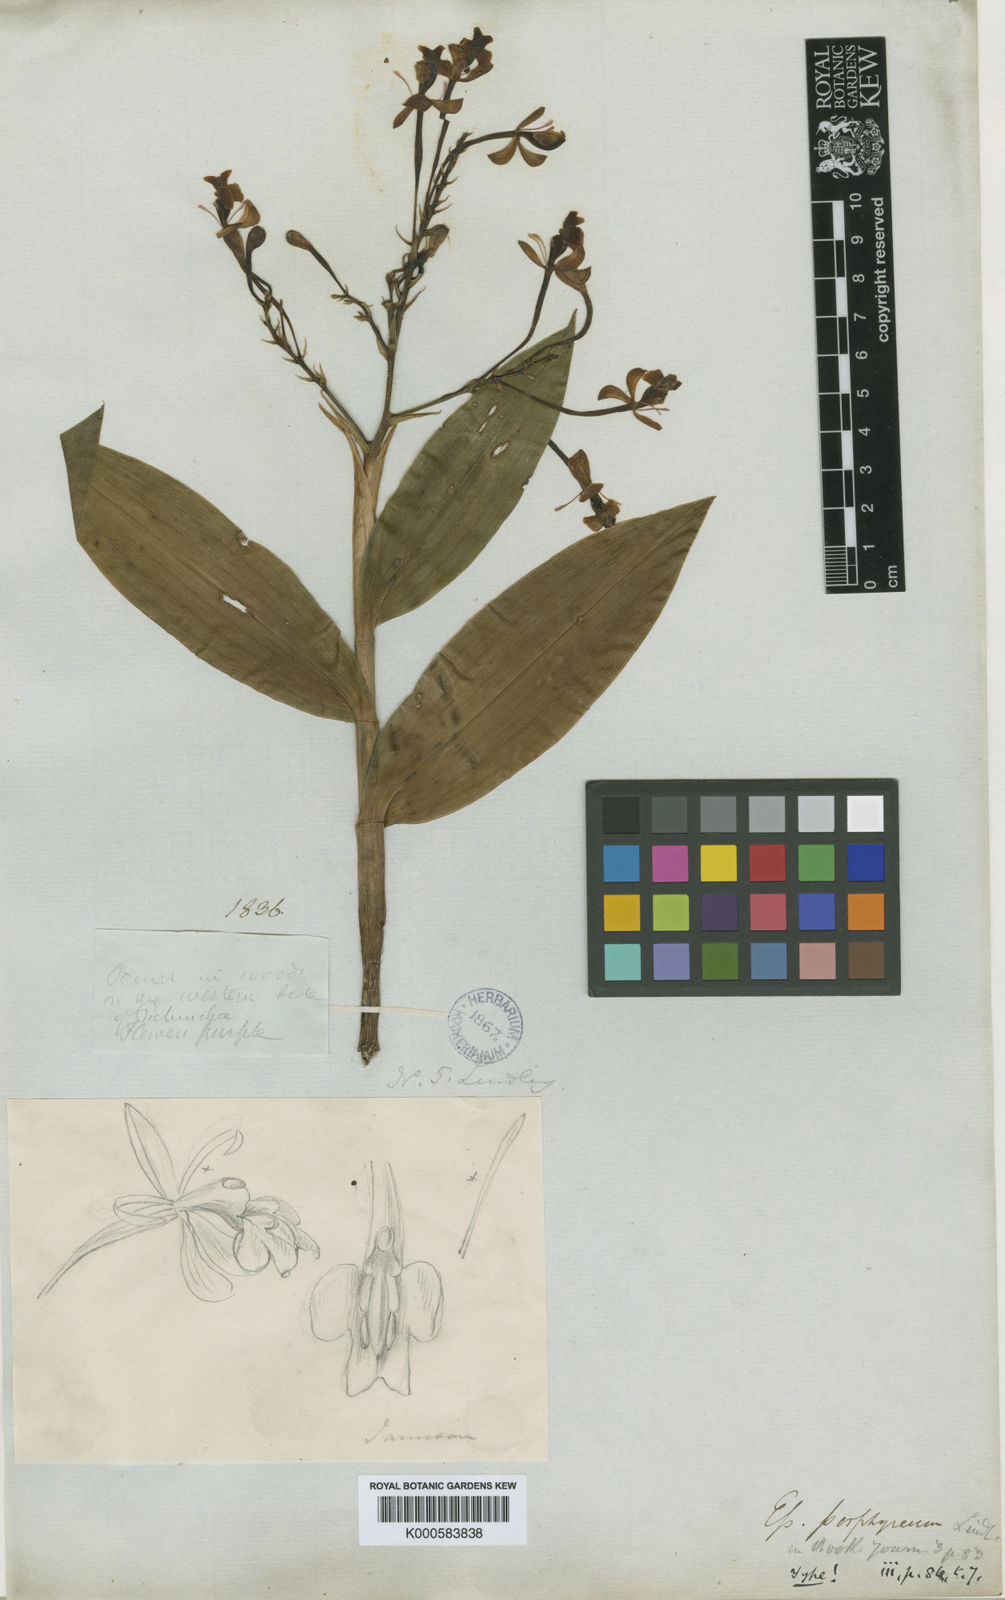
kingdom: Plantae
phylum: Tracheophyta
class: Liliopsida
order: Asparagales
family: Orchidaceae
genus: Epidendrum
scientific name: Epidendrum porphyreum
